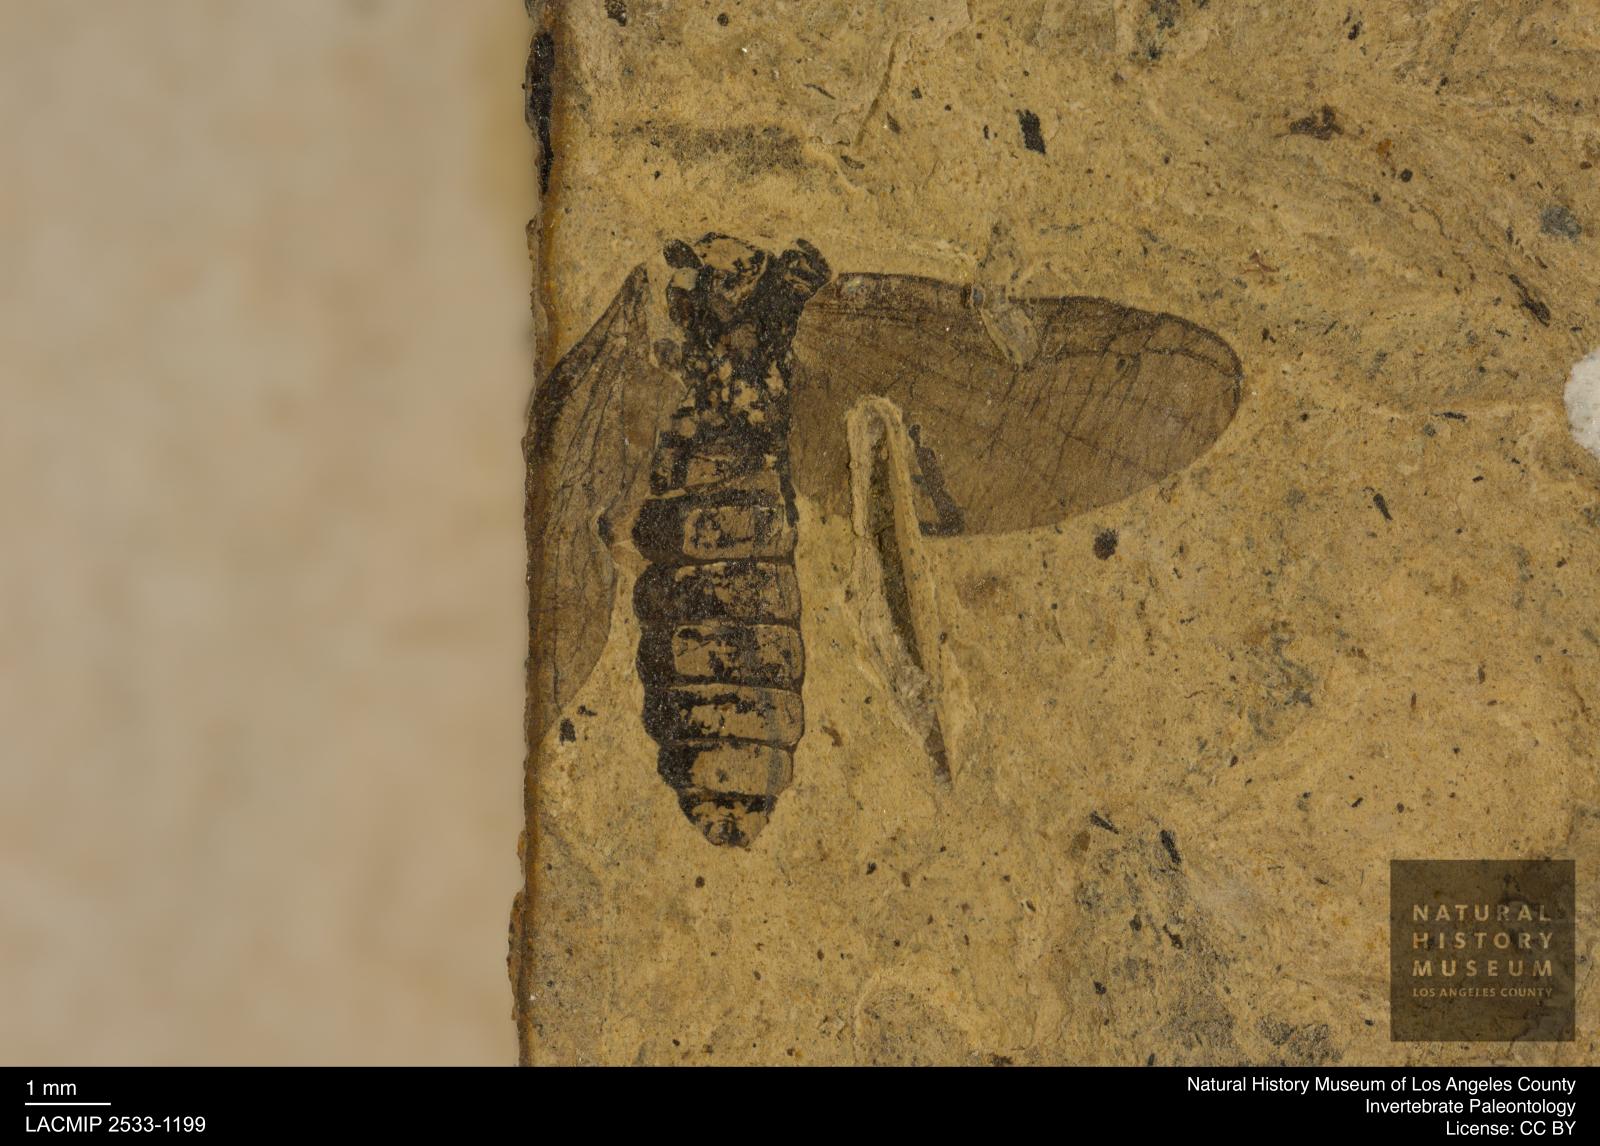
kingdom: Animalia
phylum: Arthropoda
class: Insecta
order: Diptera
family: Bibionidae
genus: Plecia
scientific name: Plecia pinguis
